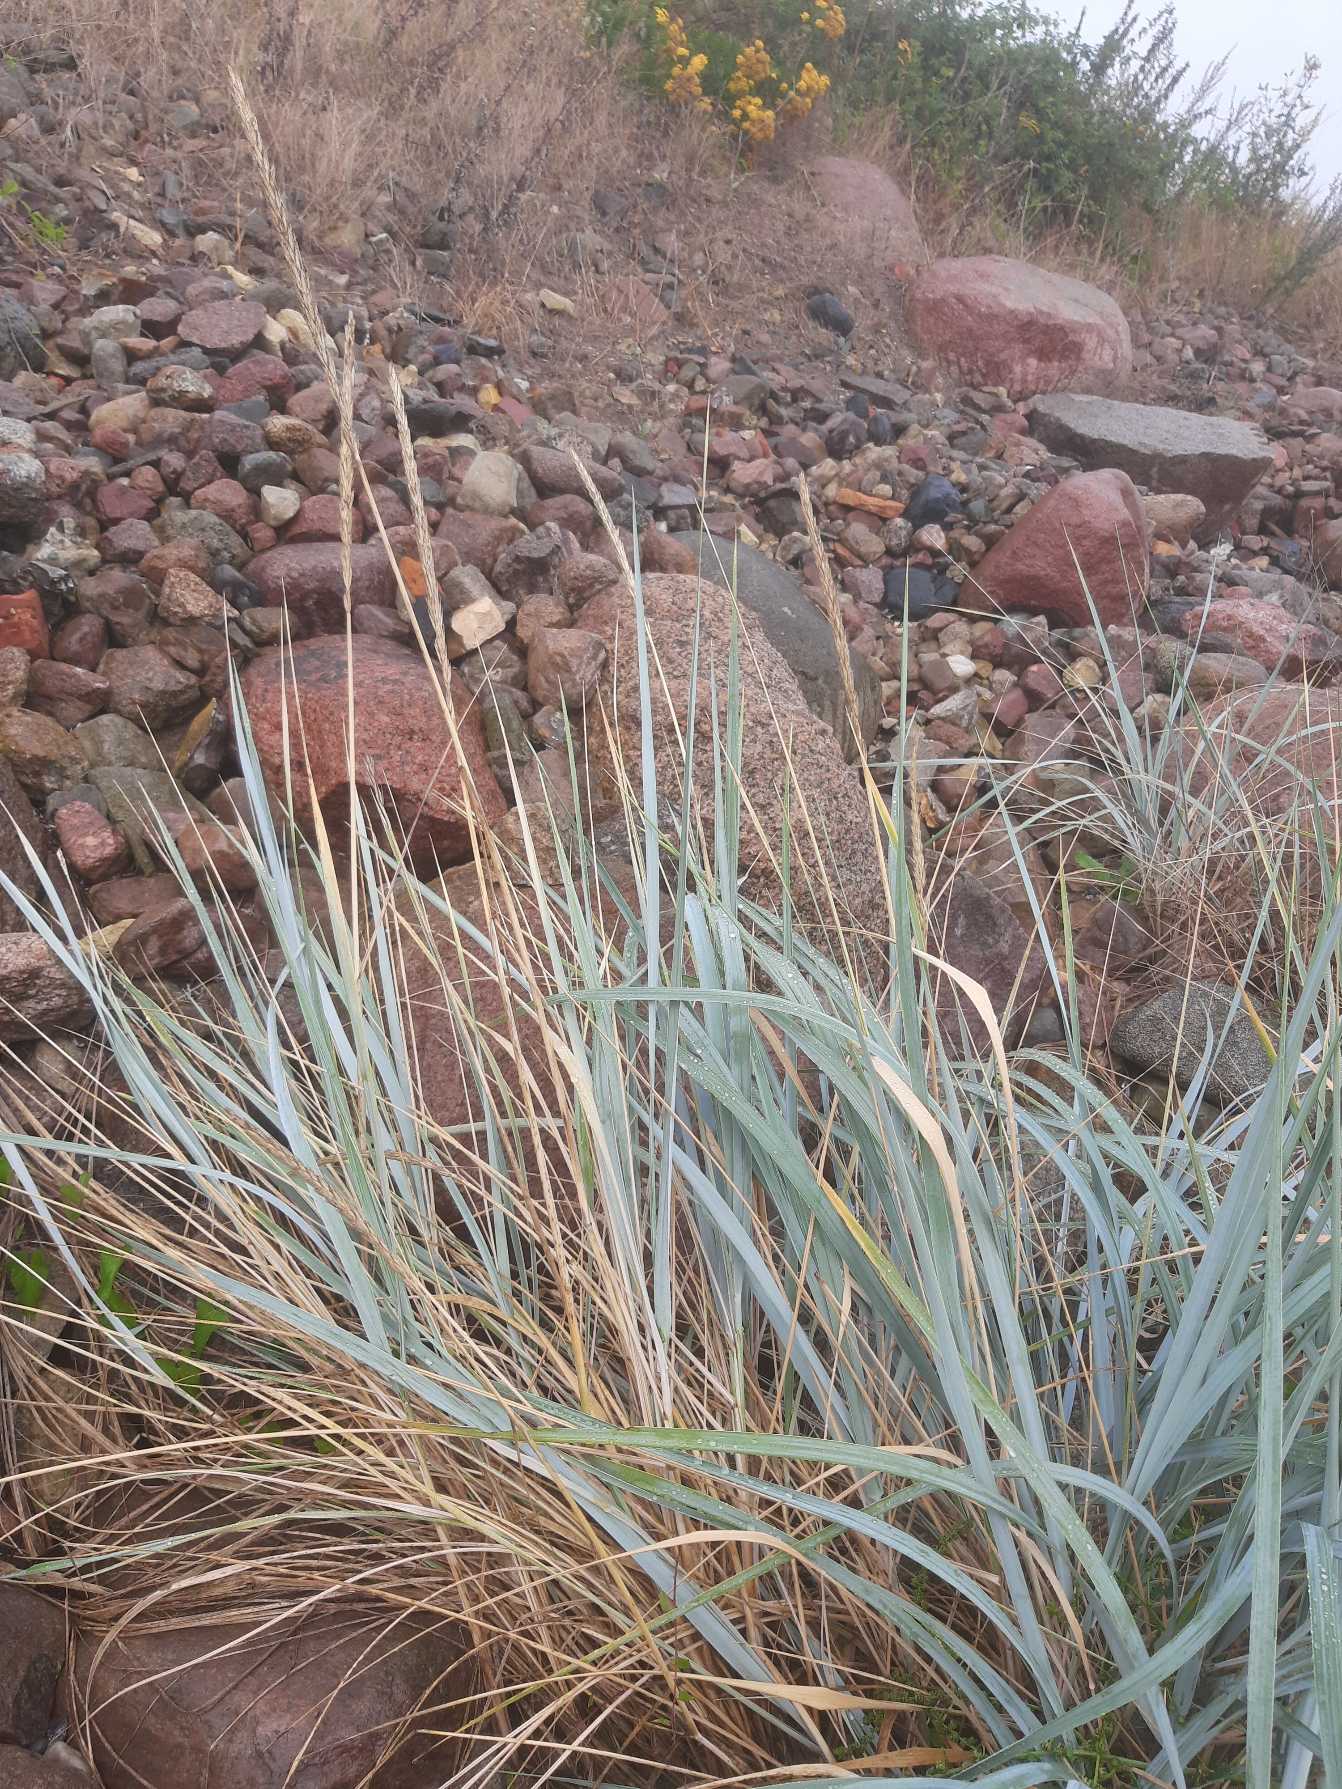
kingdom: Plantae
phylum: Tracheophyta
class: Liliopsida
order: Poales
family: Poaceae
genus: Leymus
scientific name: Leymus arenarius
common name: Marehalm
